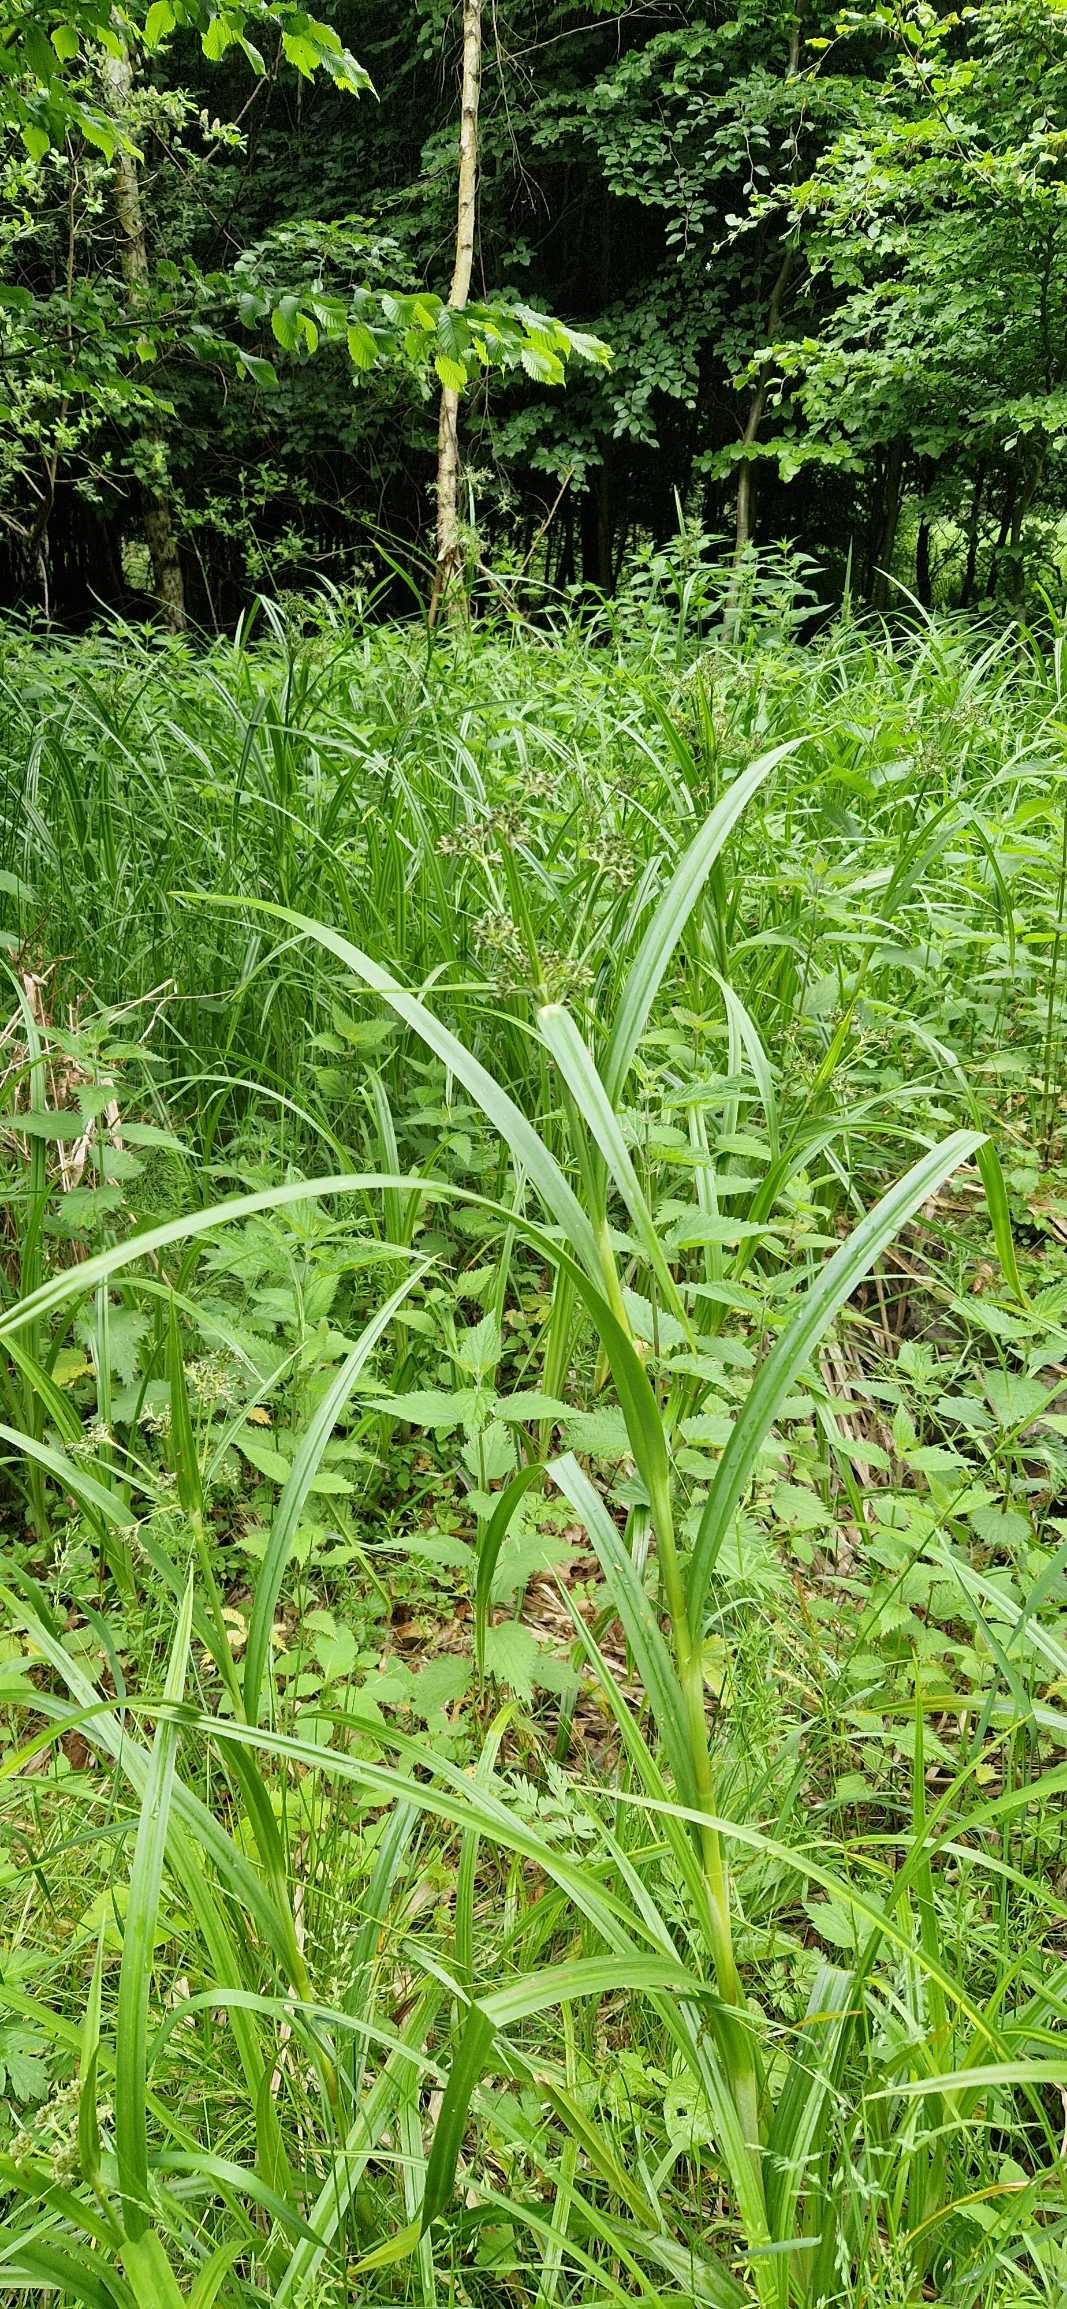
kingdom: Plantae
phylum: Tracheophyta
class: Liliopsida
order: Poales
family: Cyperaceae
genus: Scirpus
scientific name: Scirpus sylvaticus
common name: Skov-kogleaks
